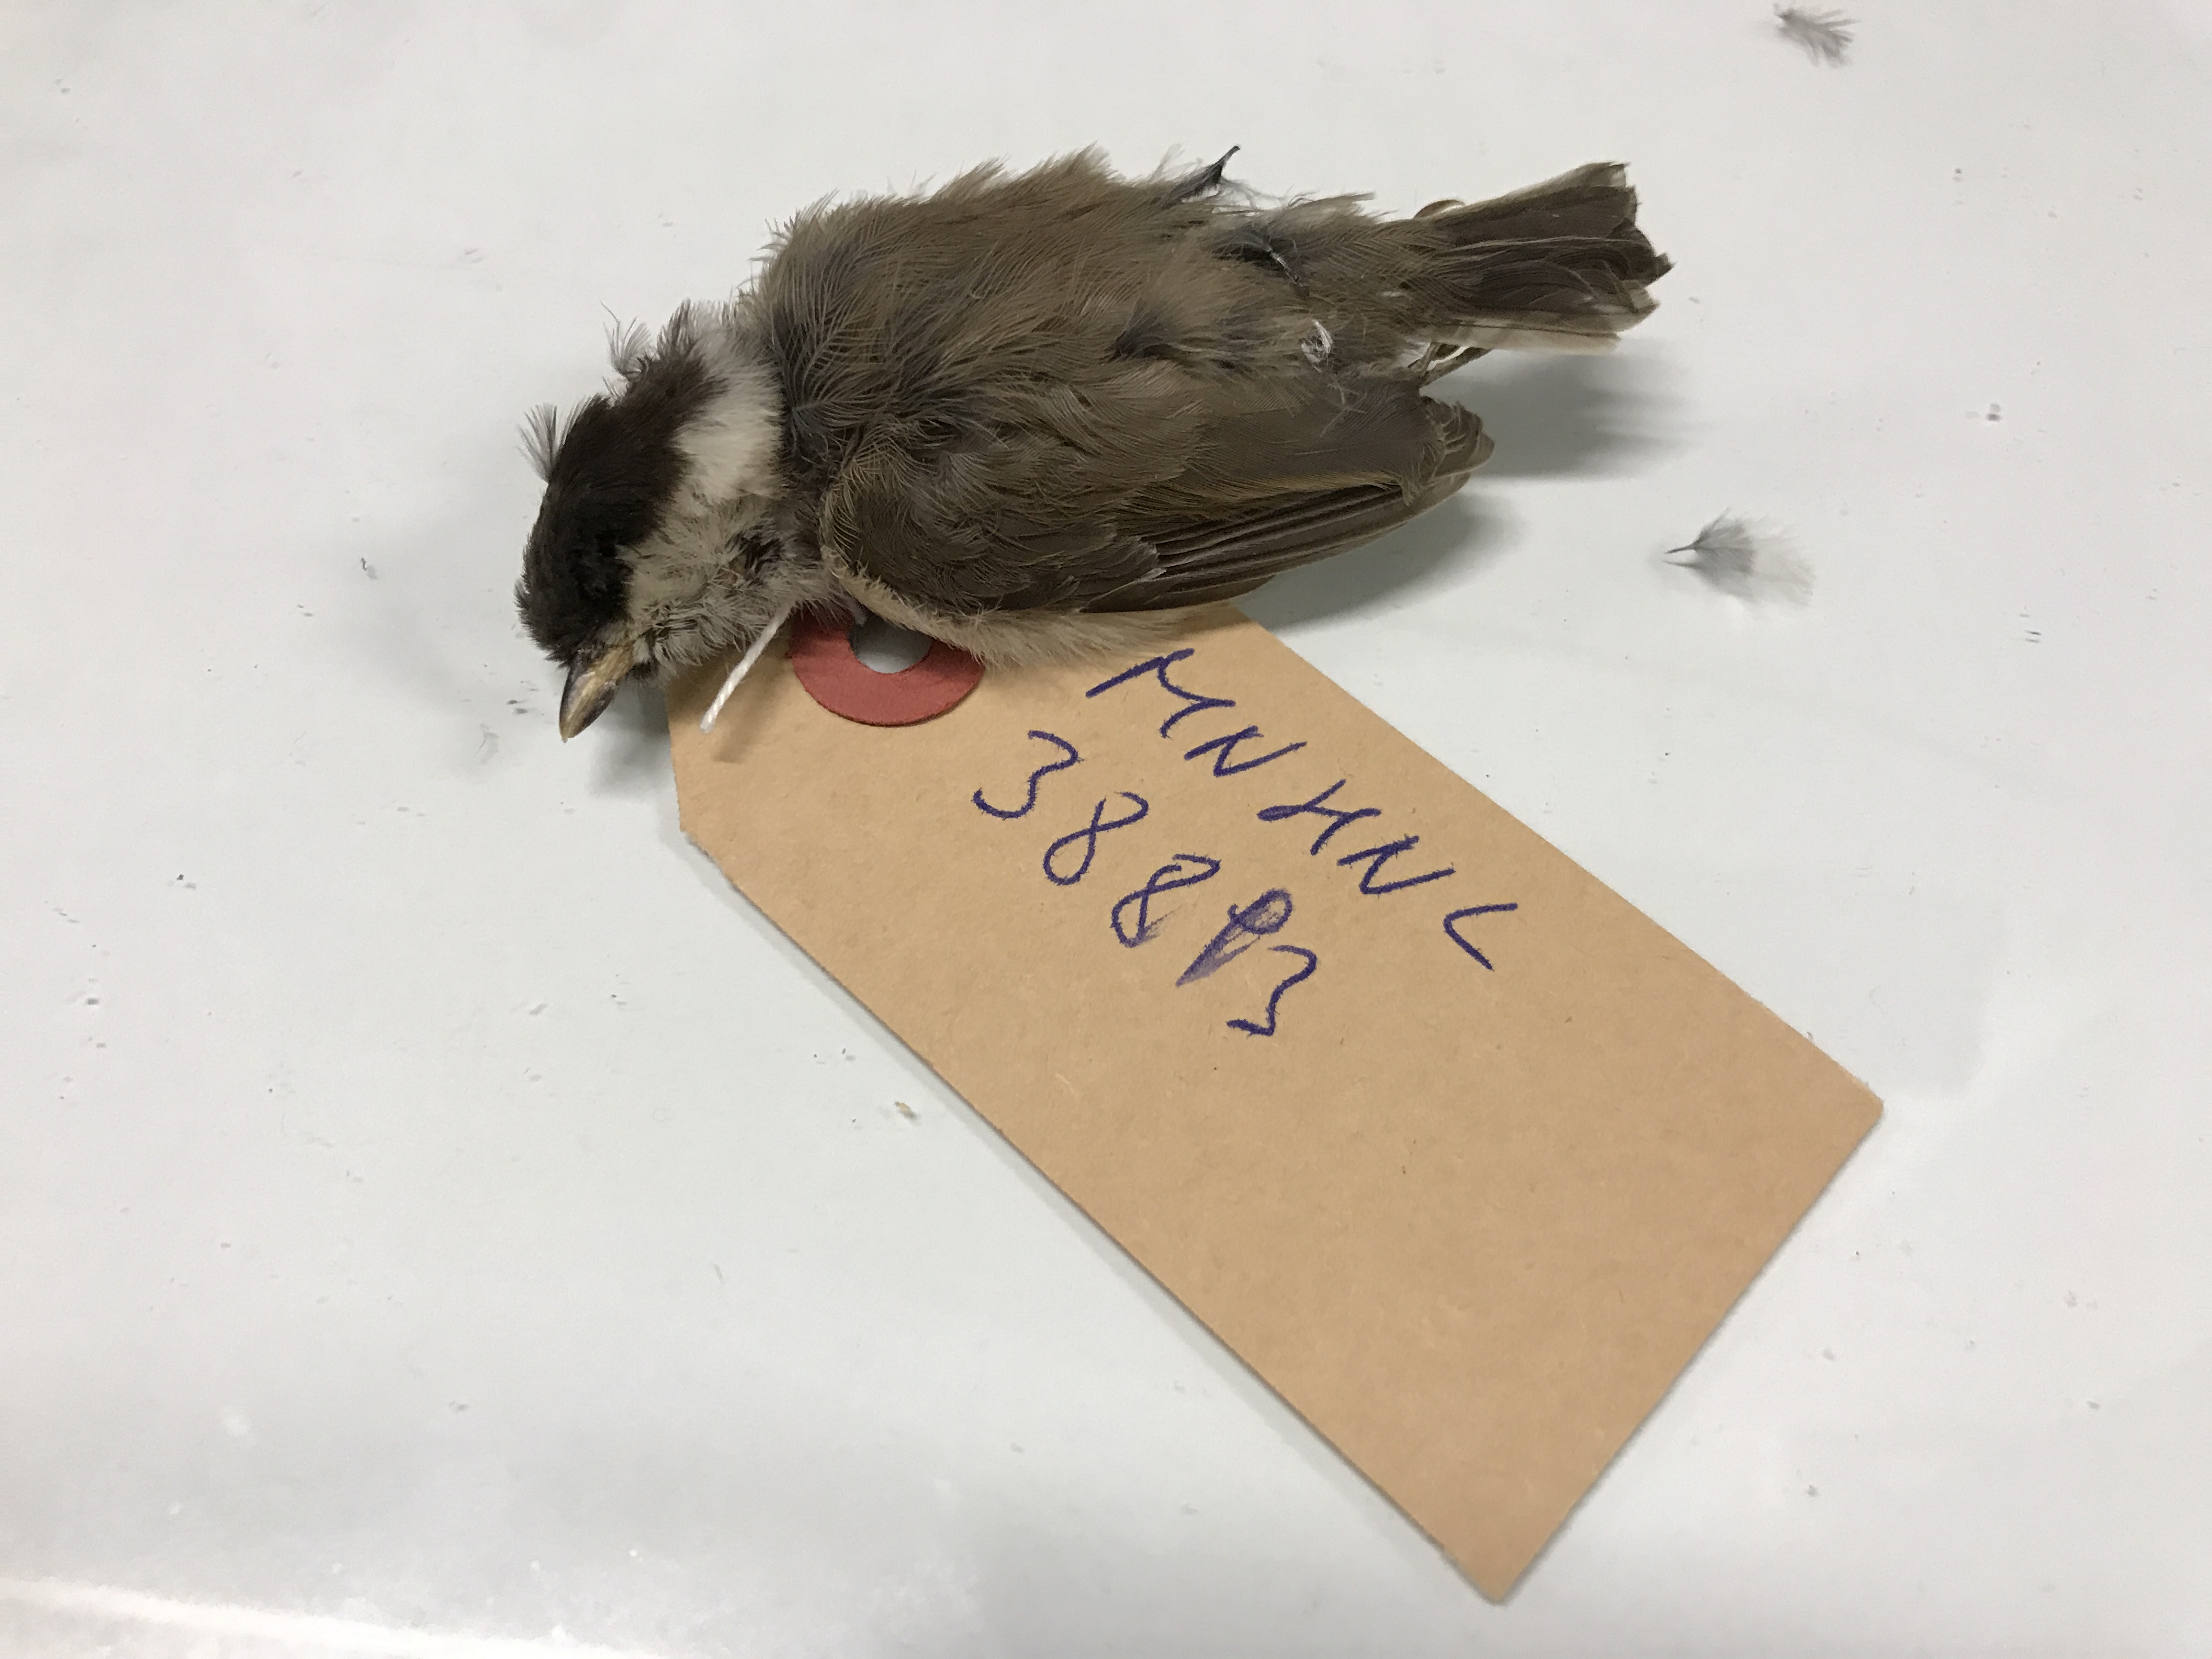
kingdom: Animalia
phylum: Chordata
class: Aves
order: Passeriformes
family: Paridae
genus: Parus
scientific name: Parus montanus
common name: Willow tit
